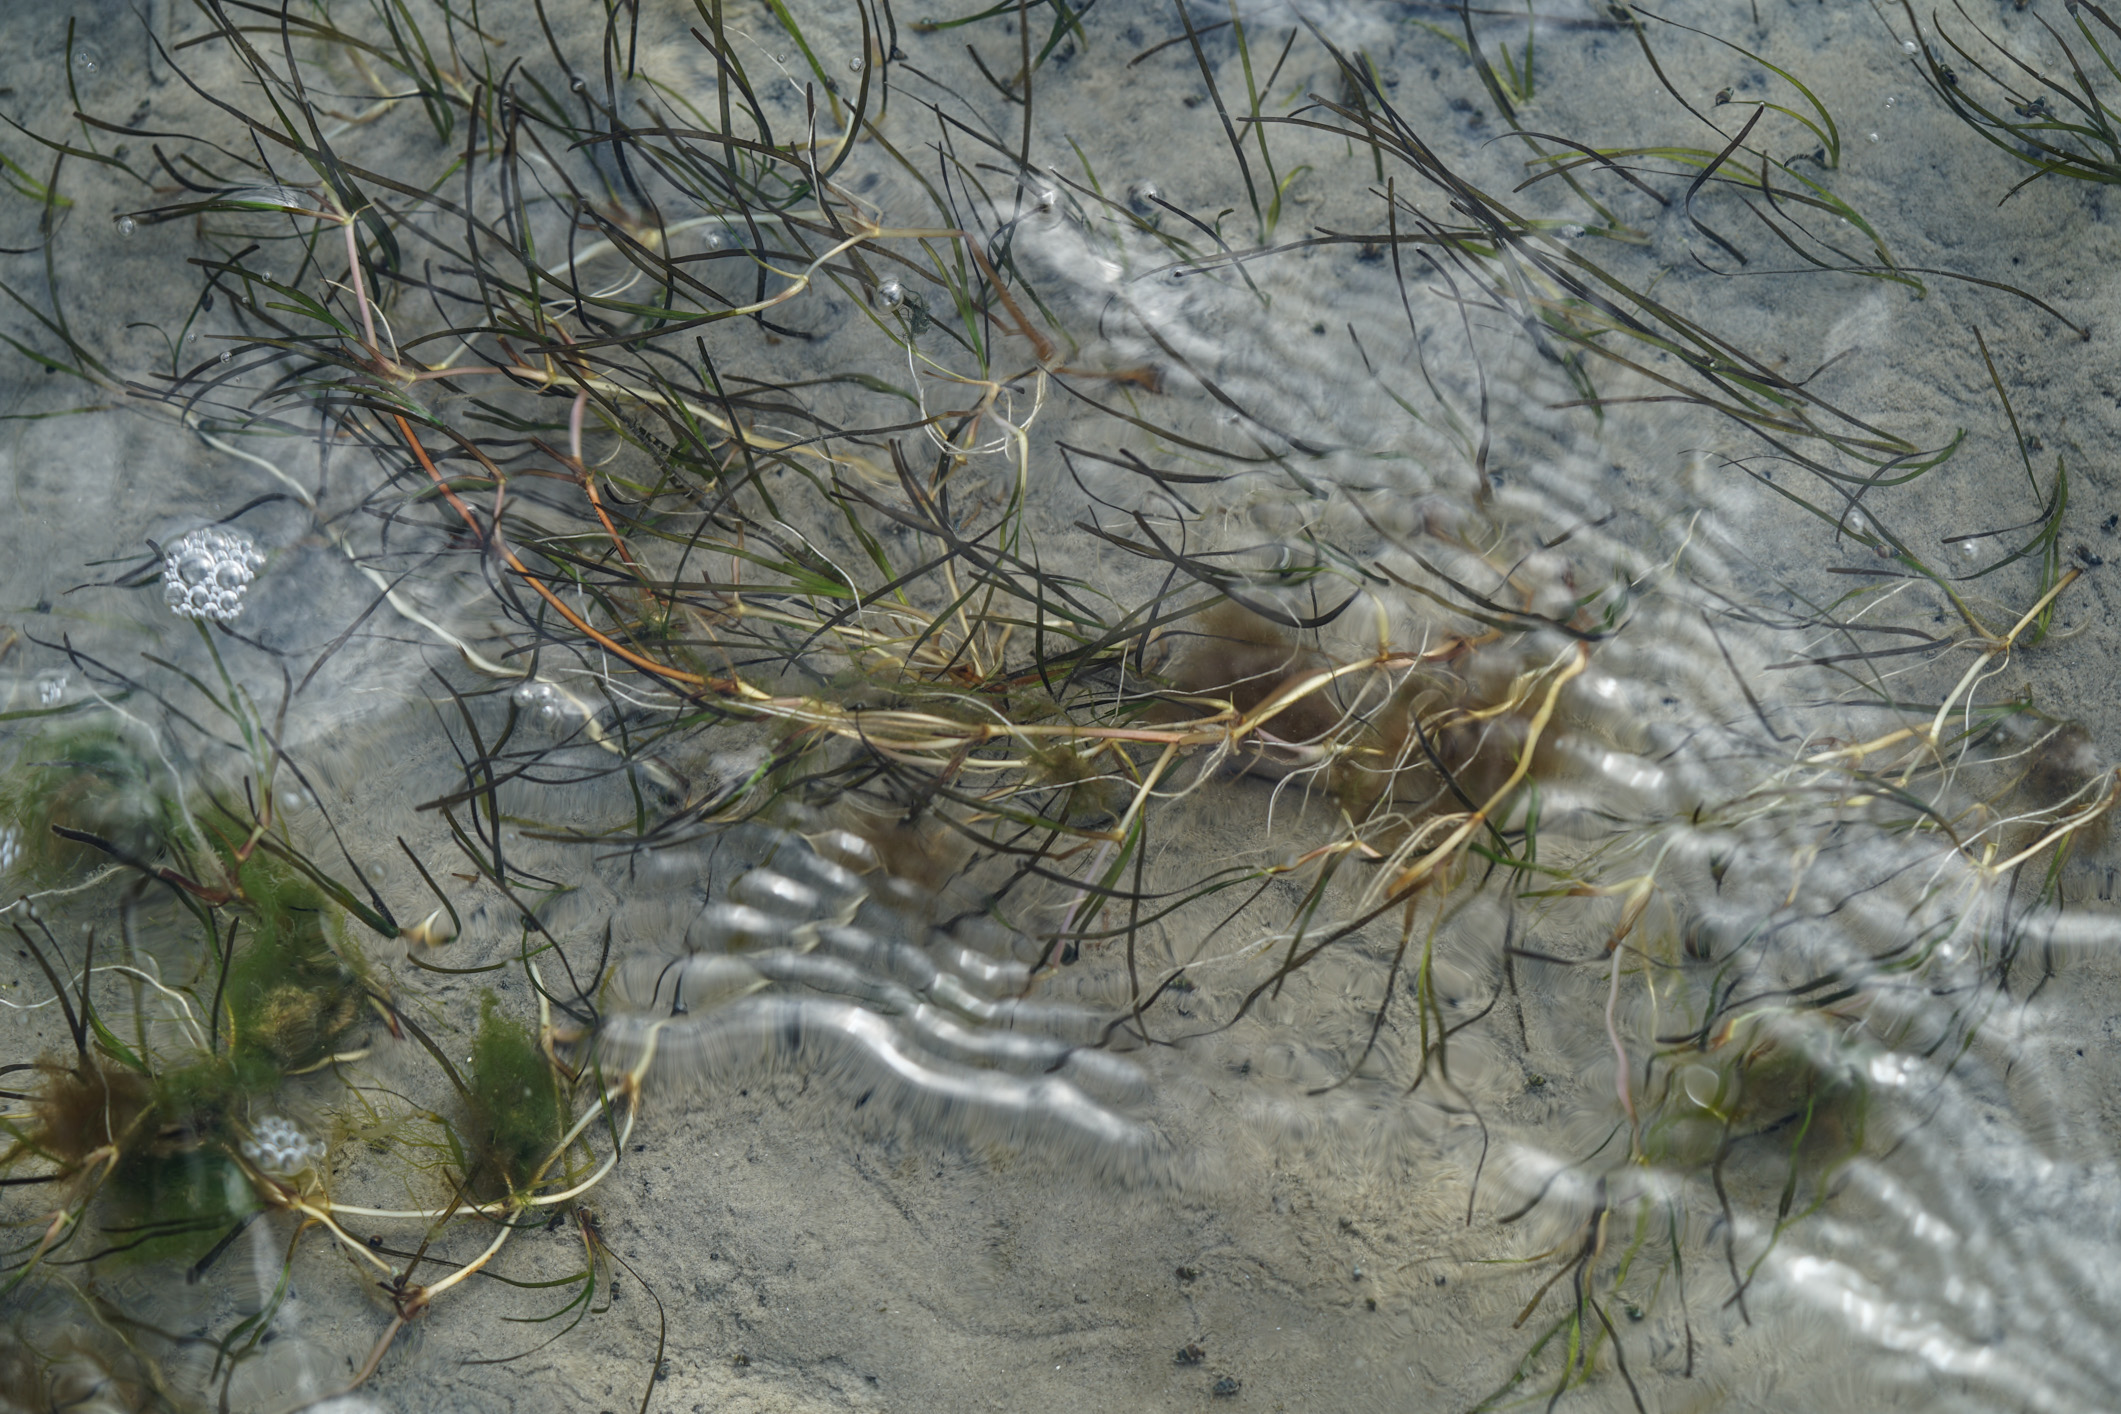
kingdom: Plantae
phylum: Tracheophyta
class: Liliopsida
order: Alismatales
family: Zosteraceae
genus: Zostera
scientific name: Zostera marina
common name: Eelgrass
